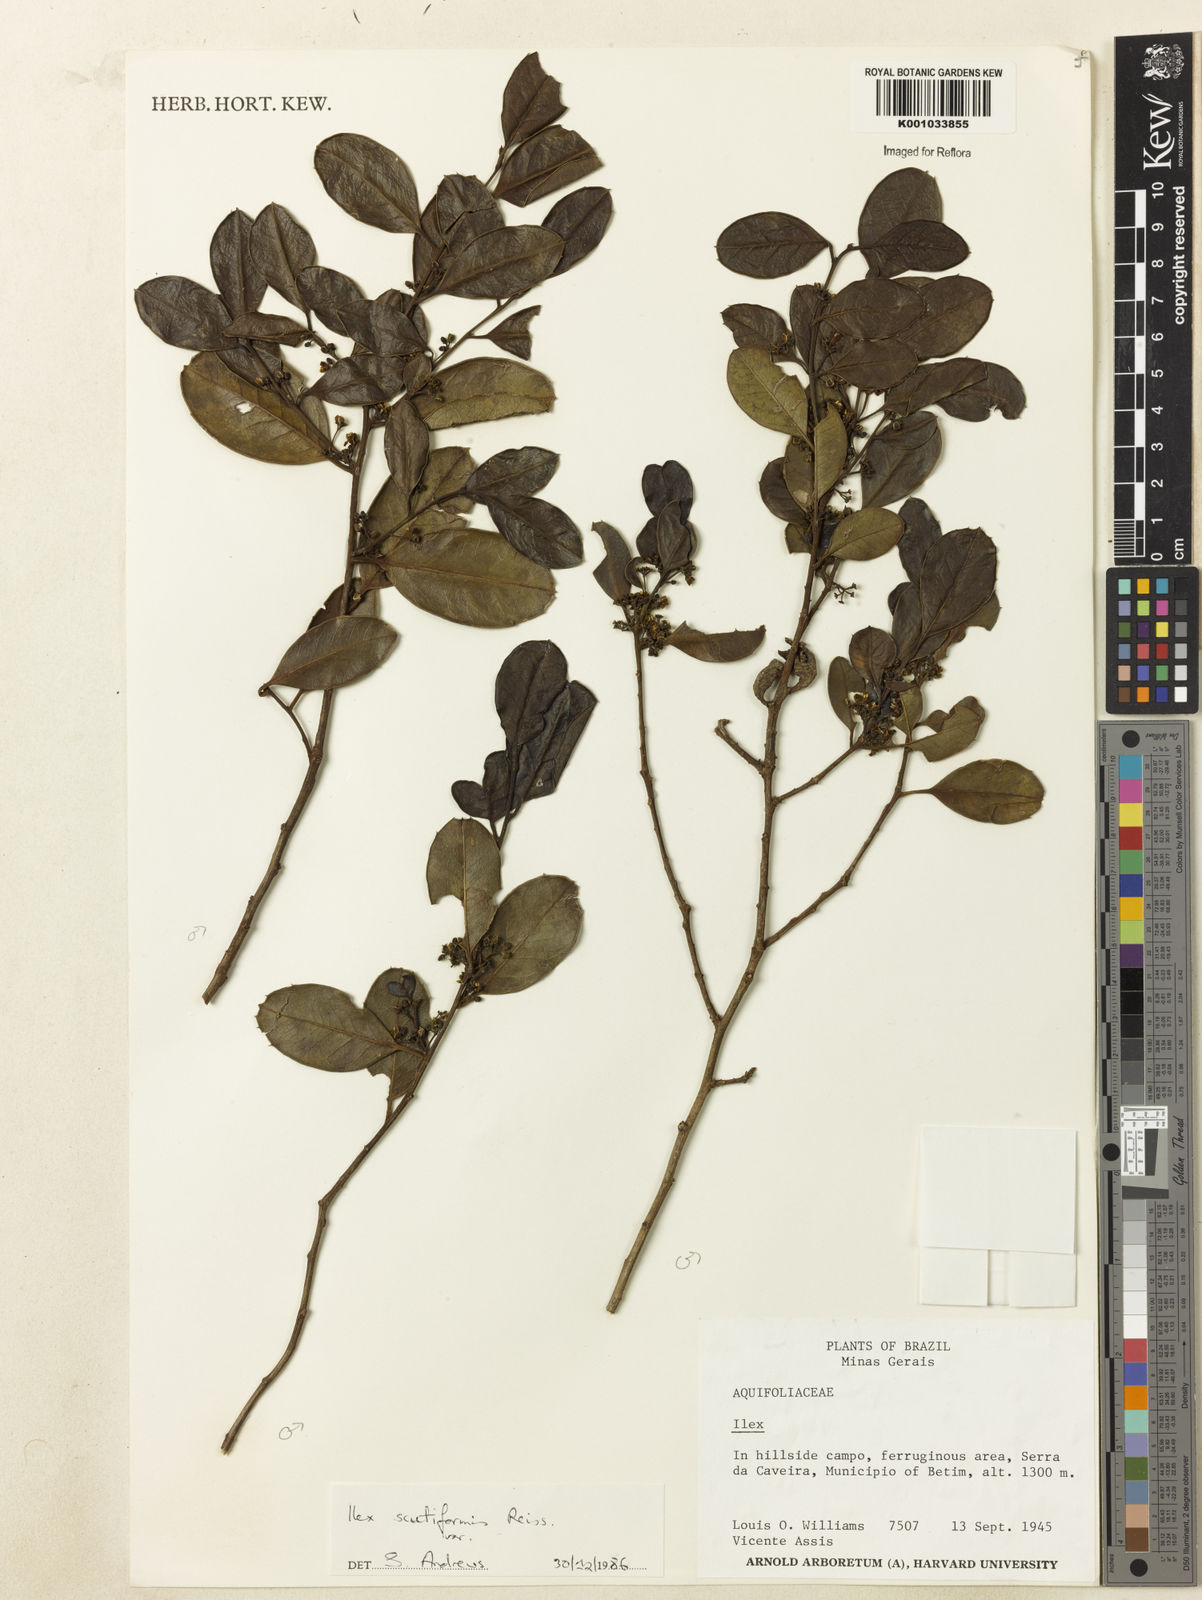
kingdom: Plantae
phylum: Tracheophyta
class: Magnoliopsida
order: Aquifoliales
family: Aquifoliaceae
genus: Ilex
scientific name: Ilex
